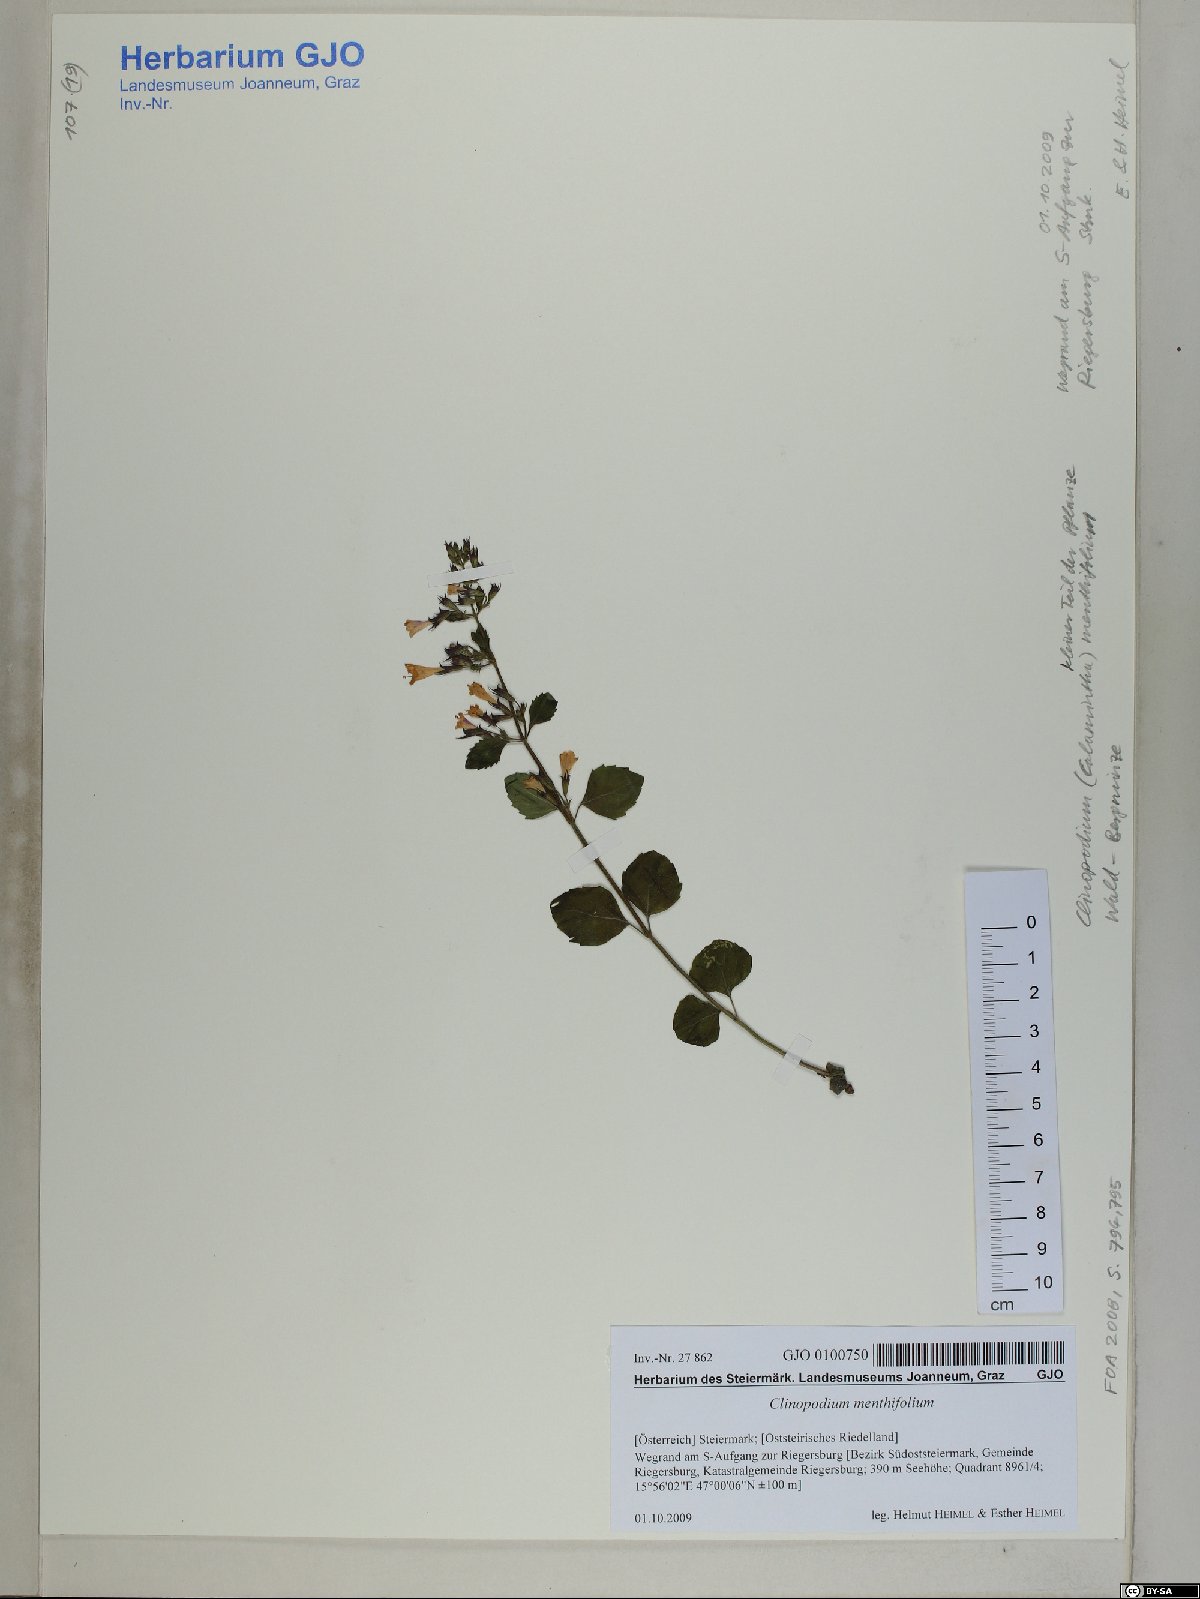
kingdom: Plantae
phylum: Tracheophyta
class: Magnoliopsida
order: Lamiales
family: Lamiaceae
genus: Clinopodium
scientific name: Clinopodium menthifolium
